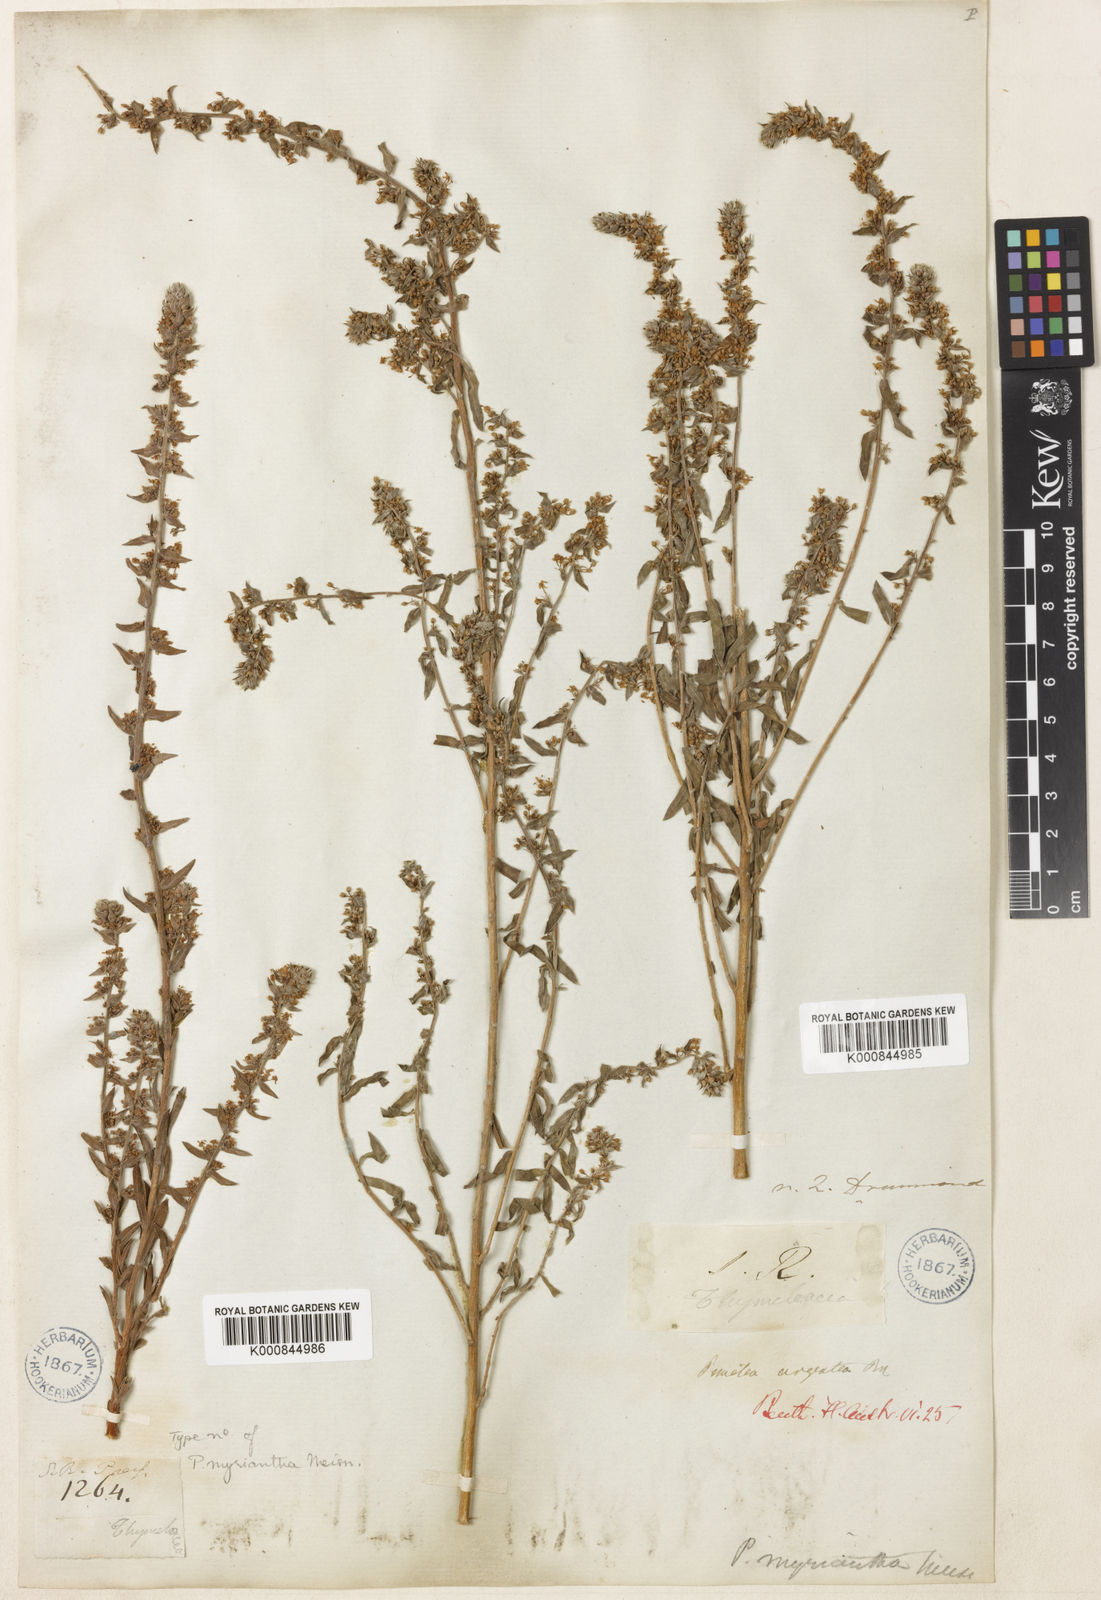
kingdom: Plantae
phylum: Tracheophyta
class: Magnoliopsida
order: Malvales
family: Thymelaeaceae
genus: Pimelea
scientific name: Pimelea argentea
